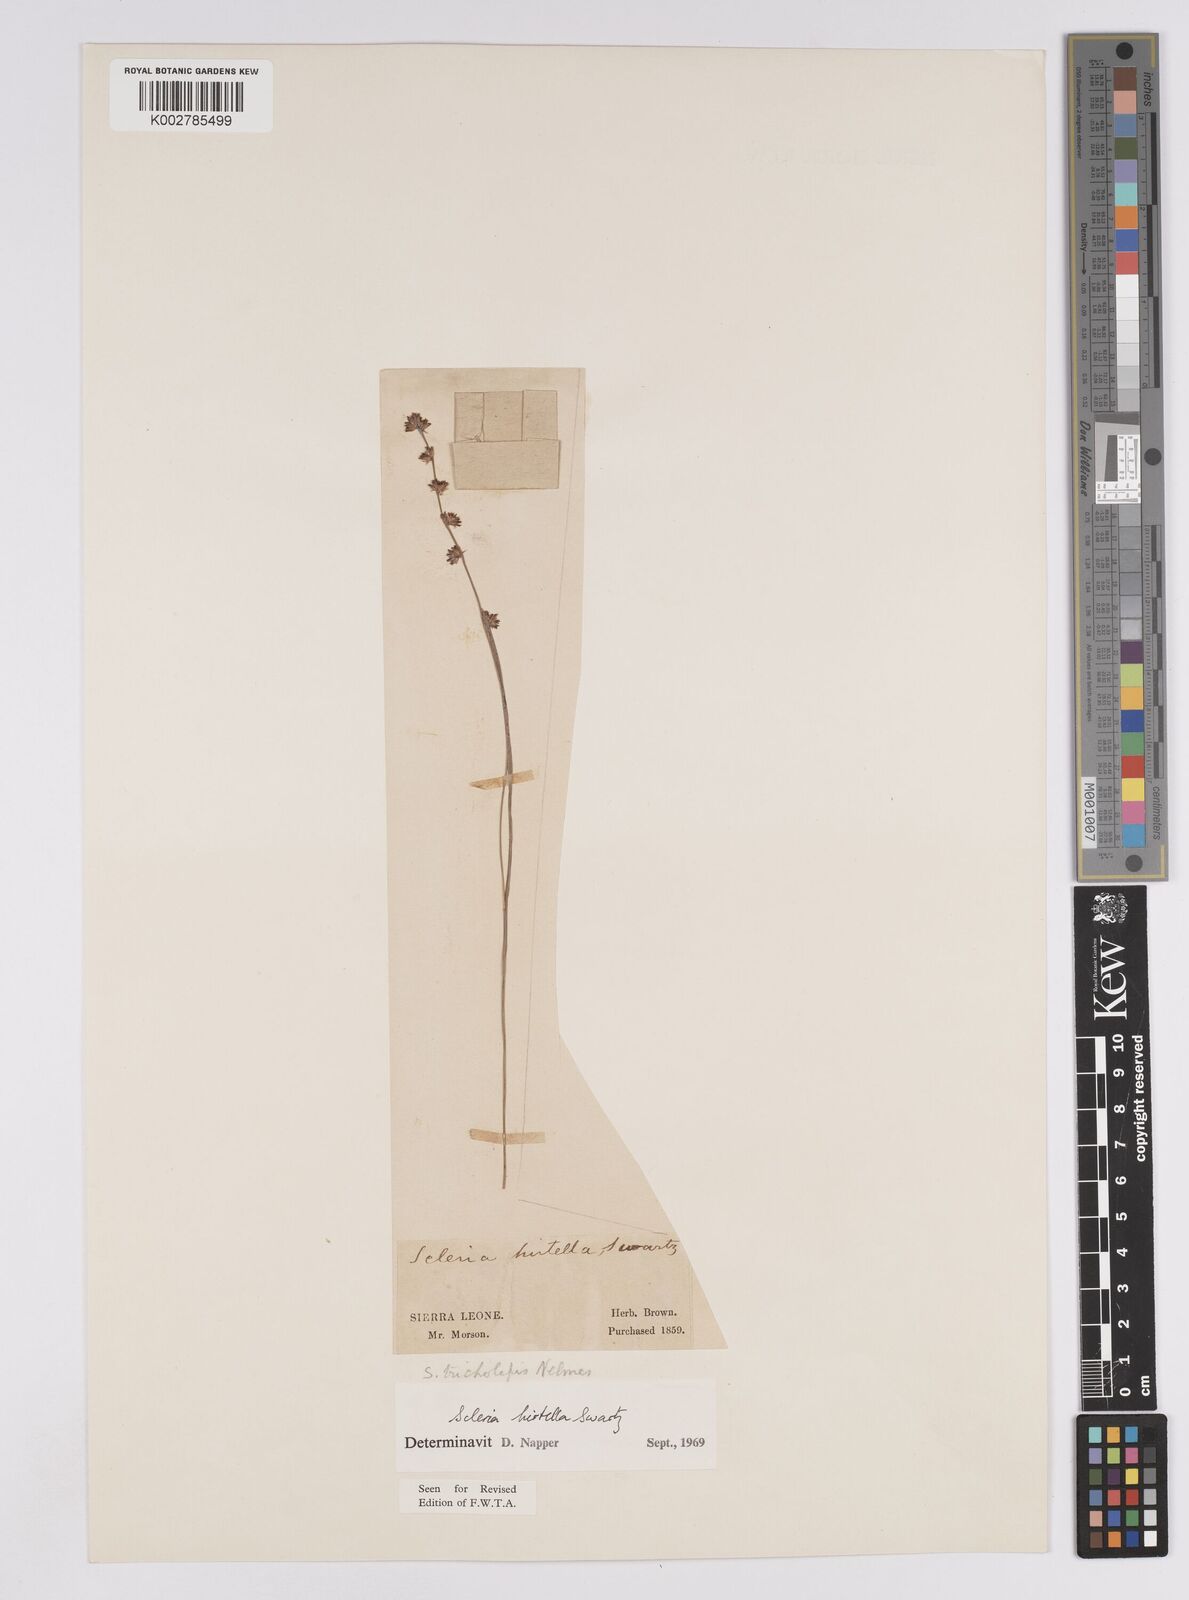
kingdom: Plantae
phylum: Tracheophyta
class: Liliopsida
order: Poales
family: Cyperaceae
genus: Scleria
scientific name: Scleria tricholepis
